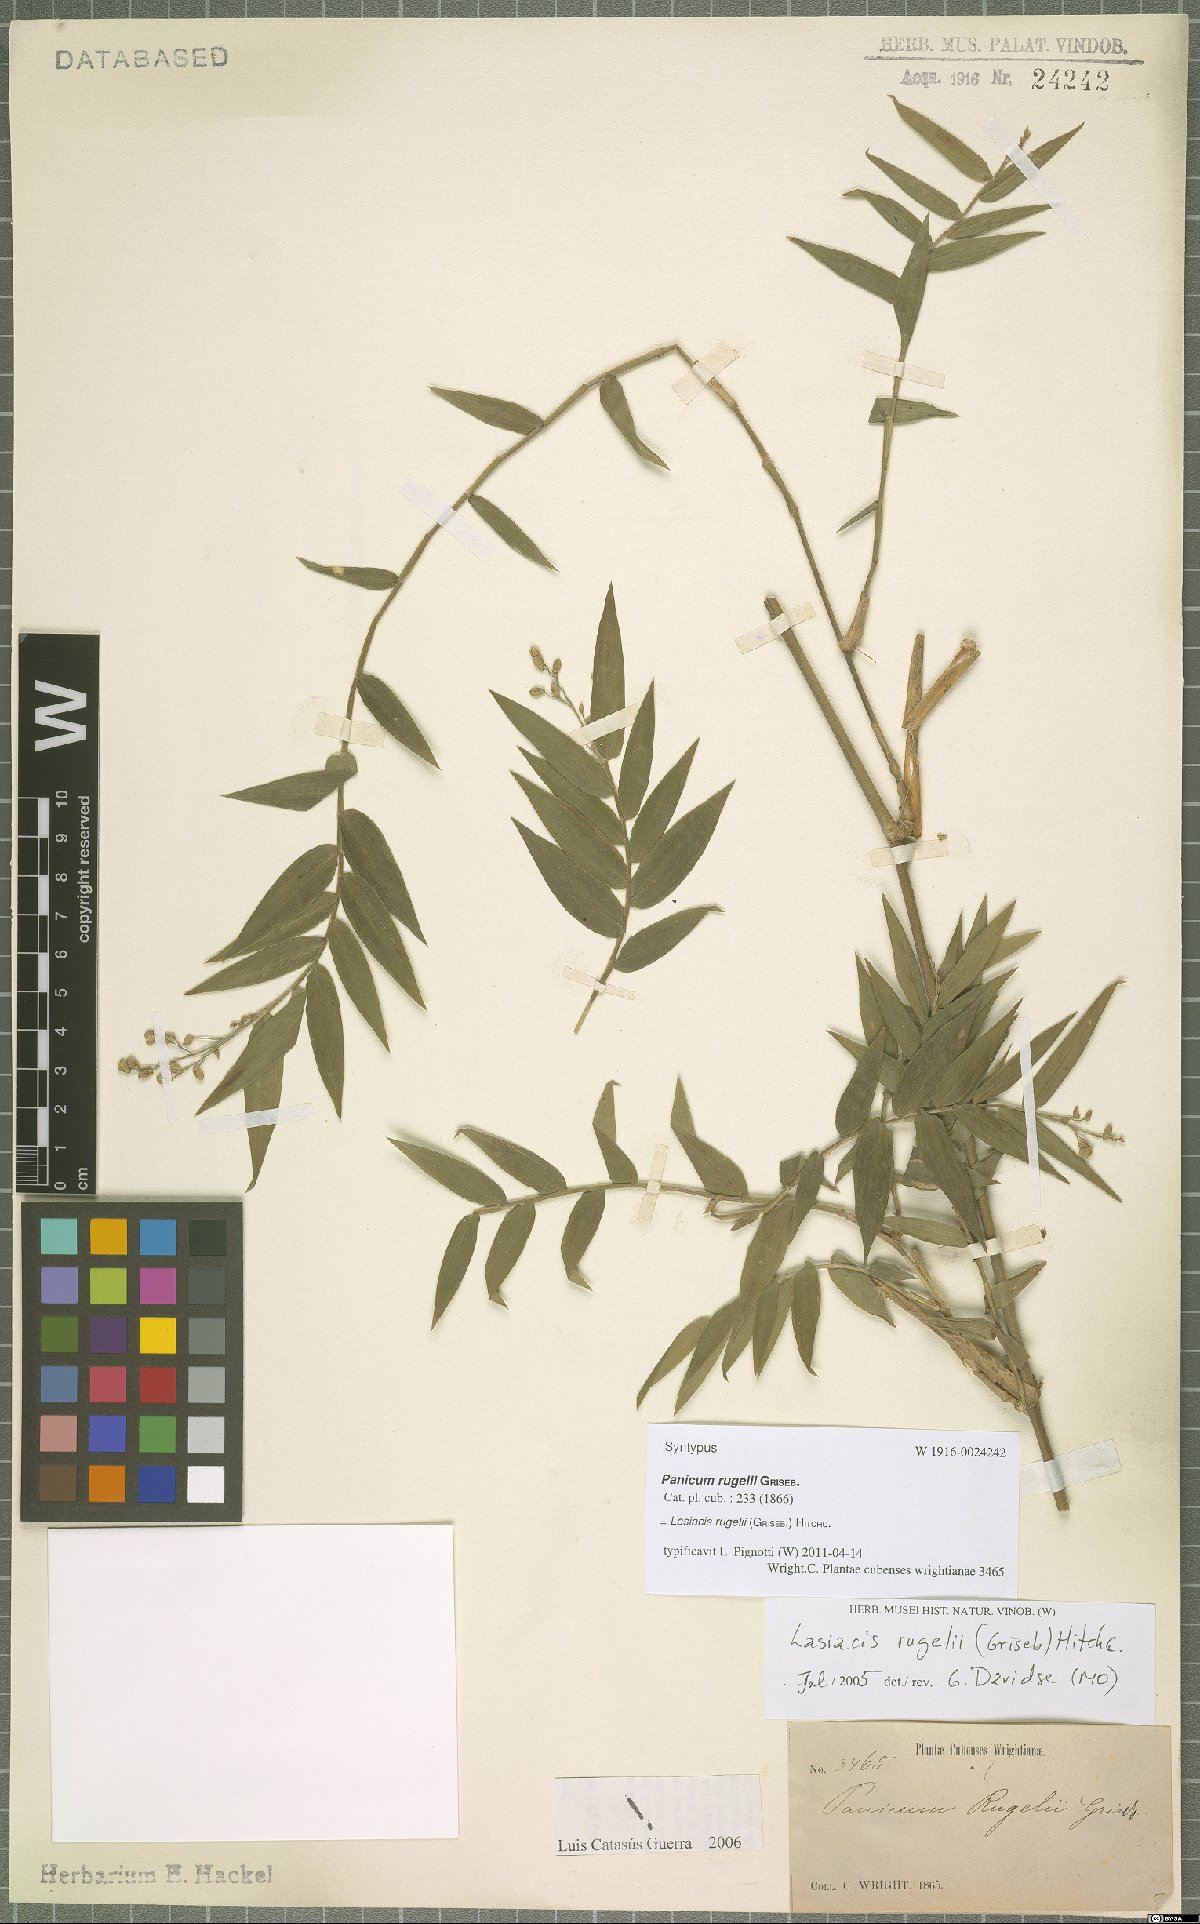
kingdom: Plantae
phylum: Tracheophyta
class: Liliopsida
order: Poales
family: Poaceae
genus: Lasiacis
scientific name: Lasiacis rugelii
